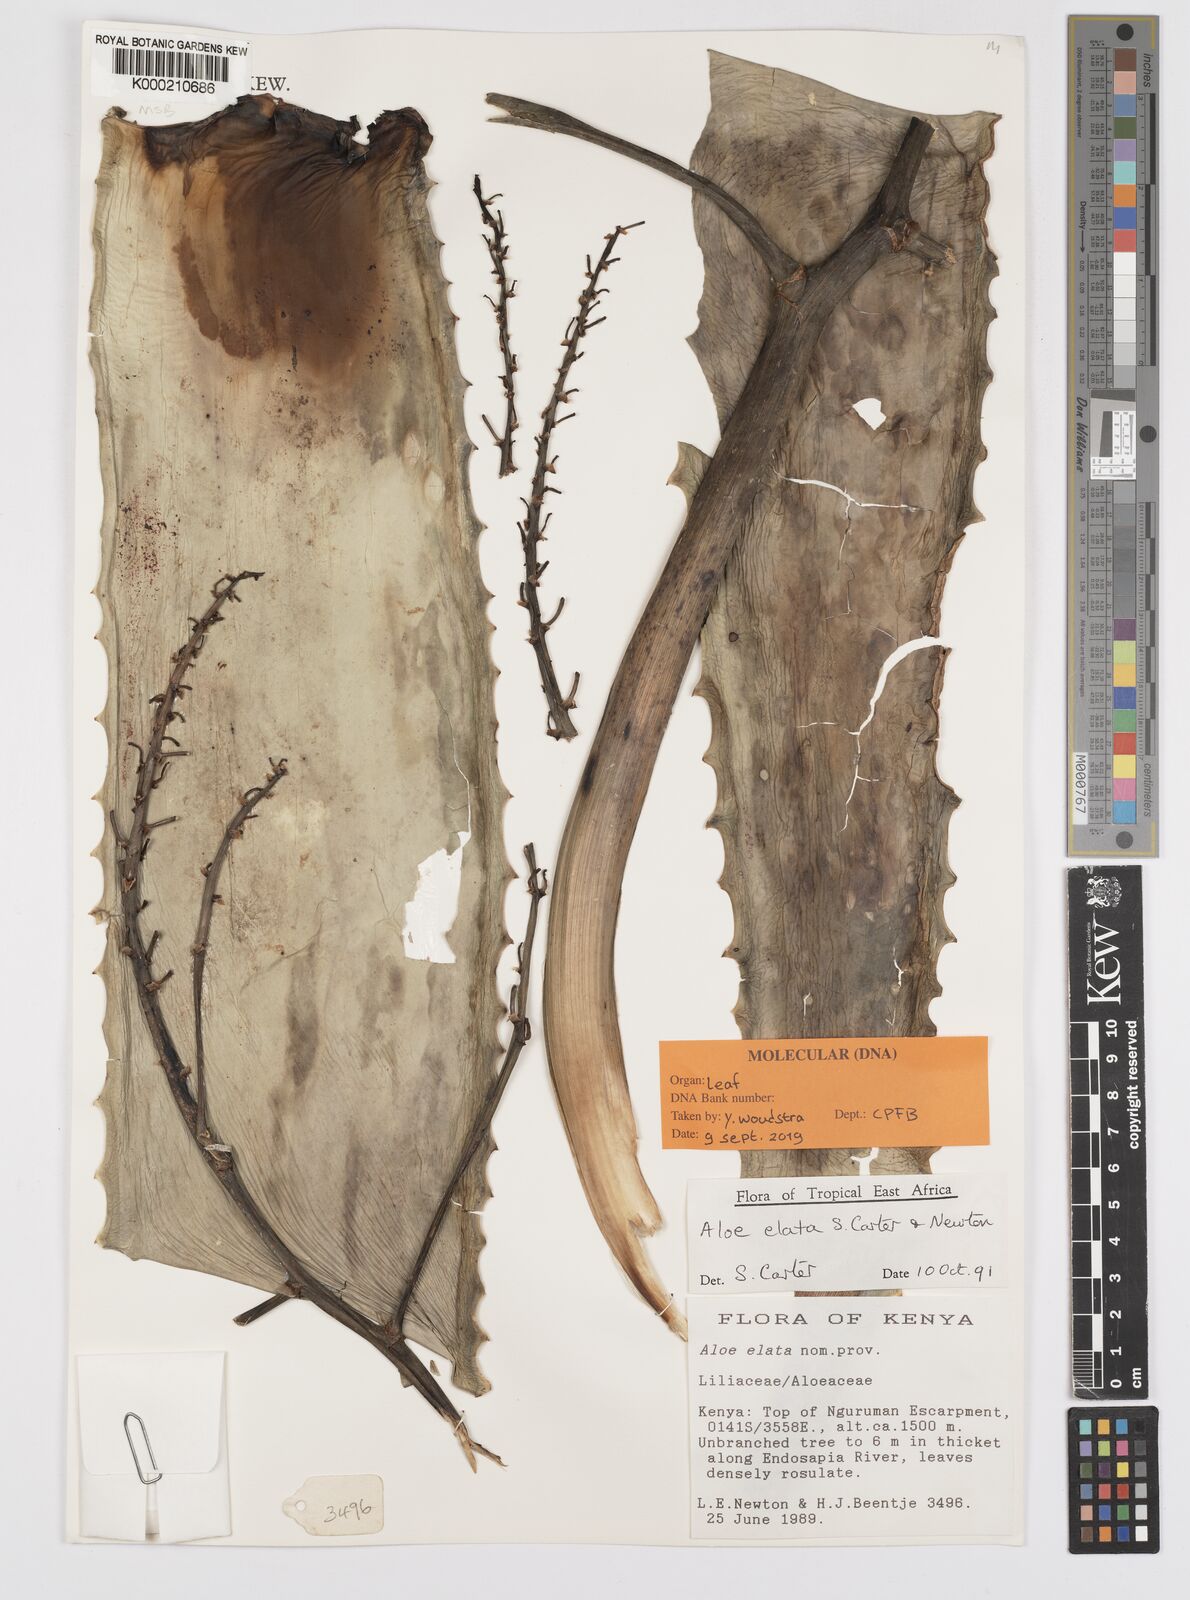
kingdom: Plantae
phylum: Tracheophyta
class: Liliopsida
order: Asparagales
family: Asphodelaceae
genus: Aloe
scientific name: Aloe elata
